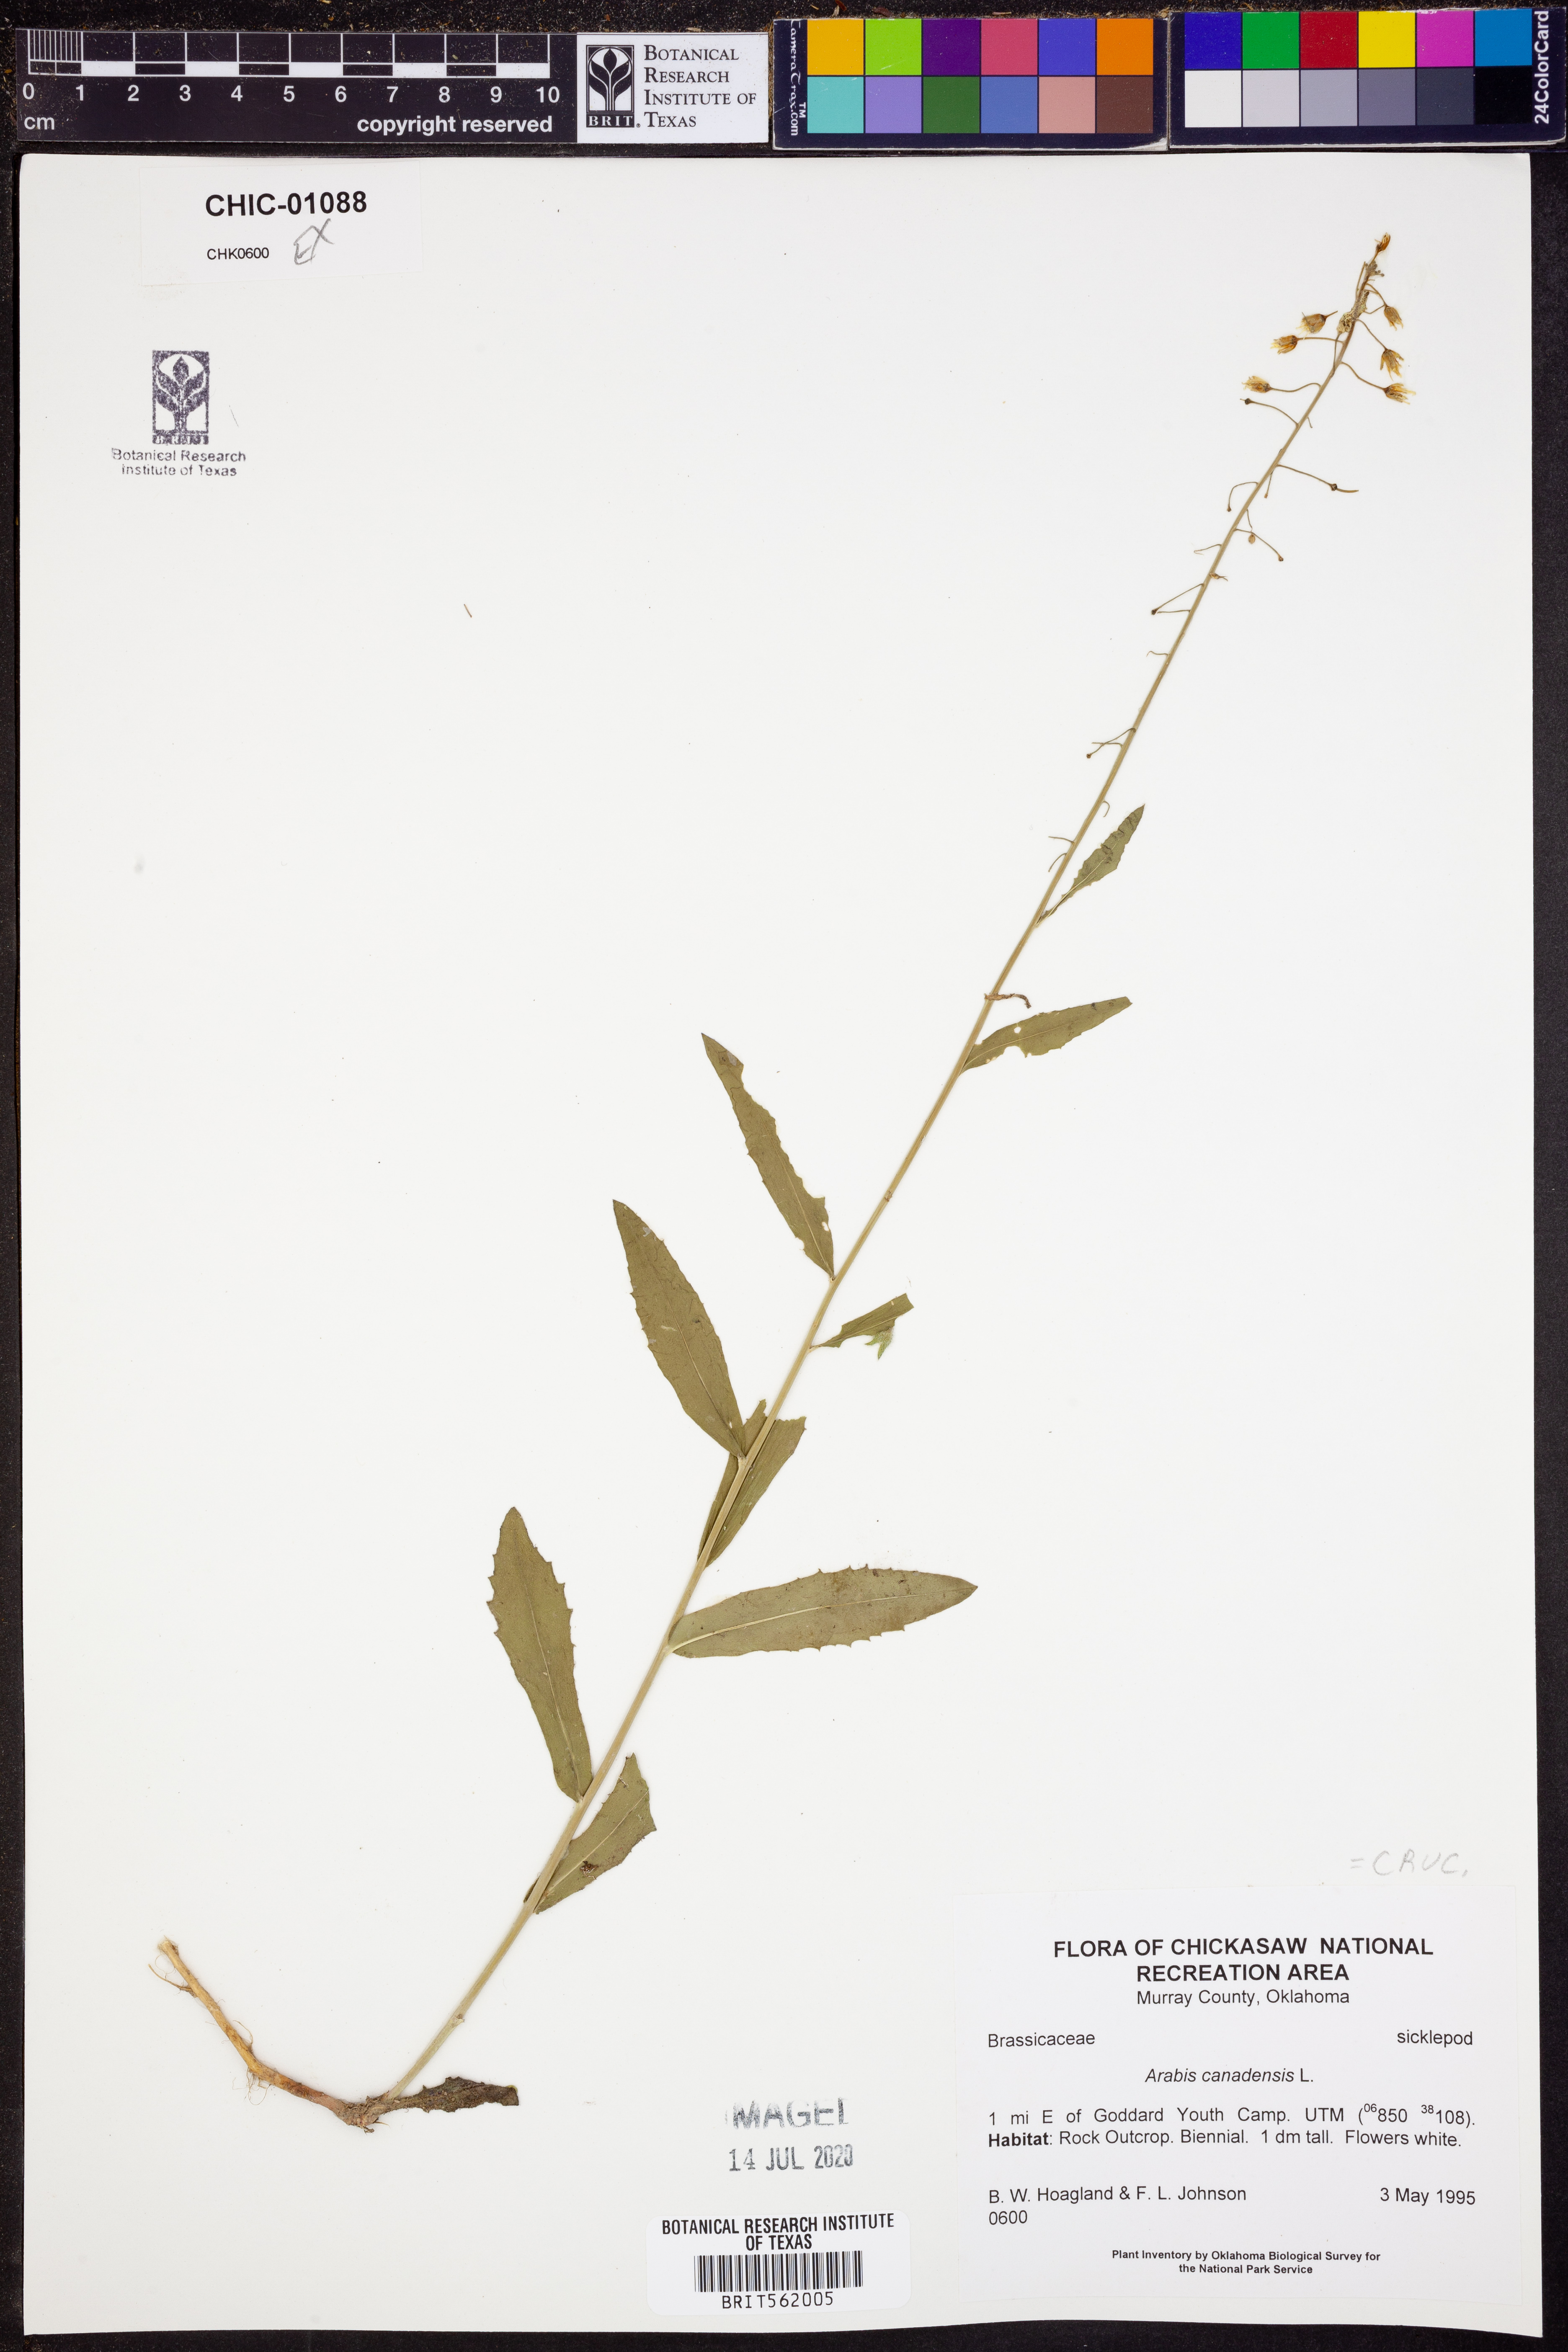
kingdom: Plantae
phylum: Tracheophyta
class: Magnoliopsida
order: Brassicales
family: Brassicaceae
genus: Borodinia
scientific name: Borodinia canadensis
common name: Sicklepod
